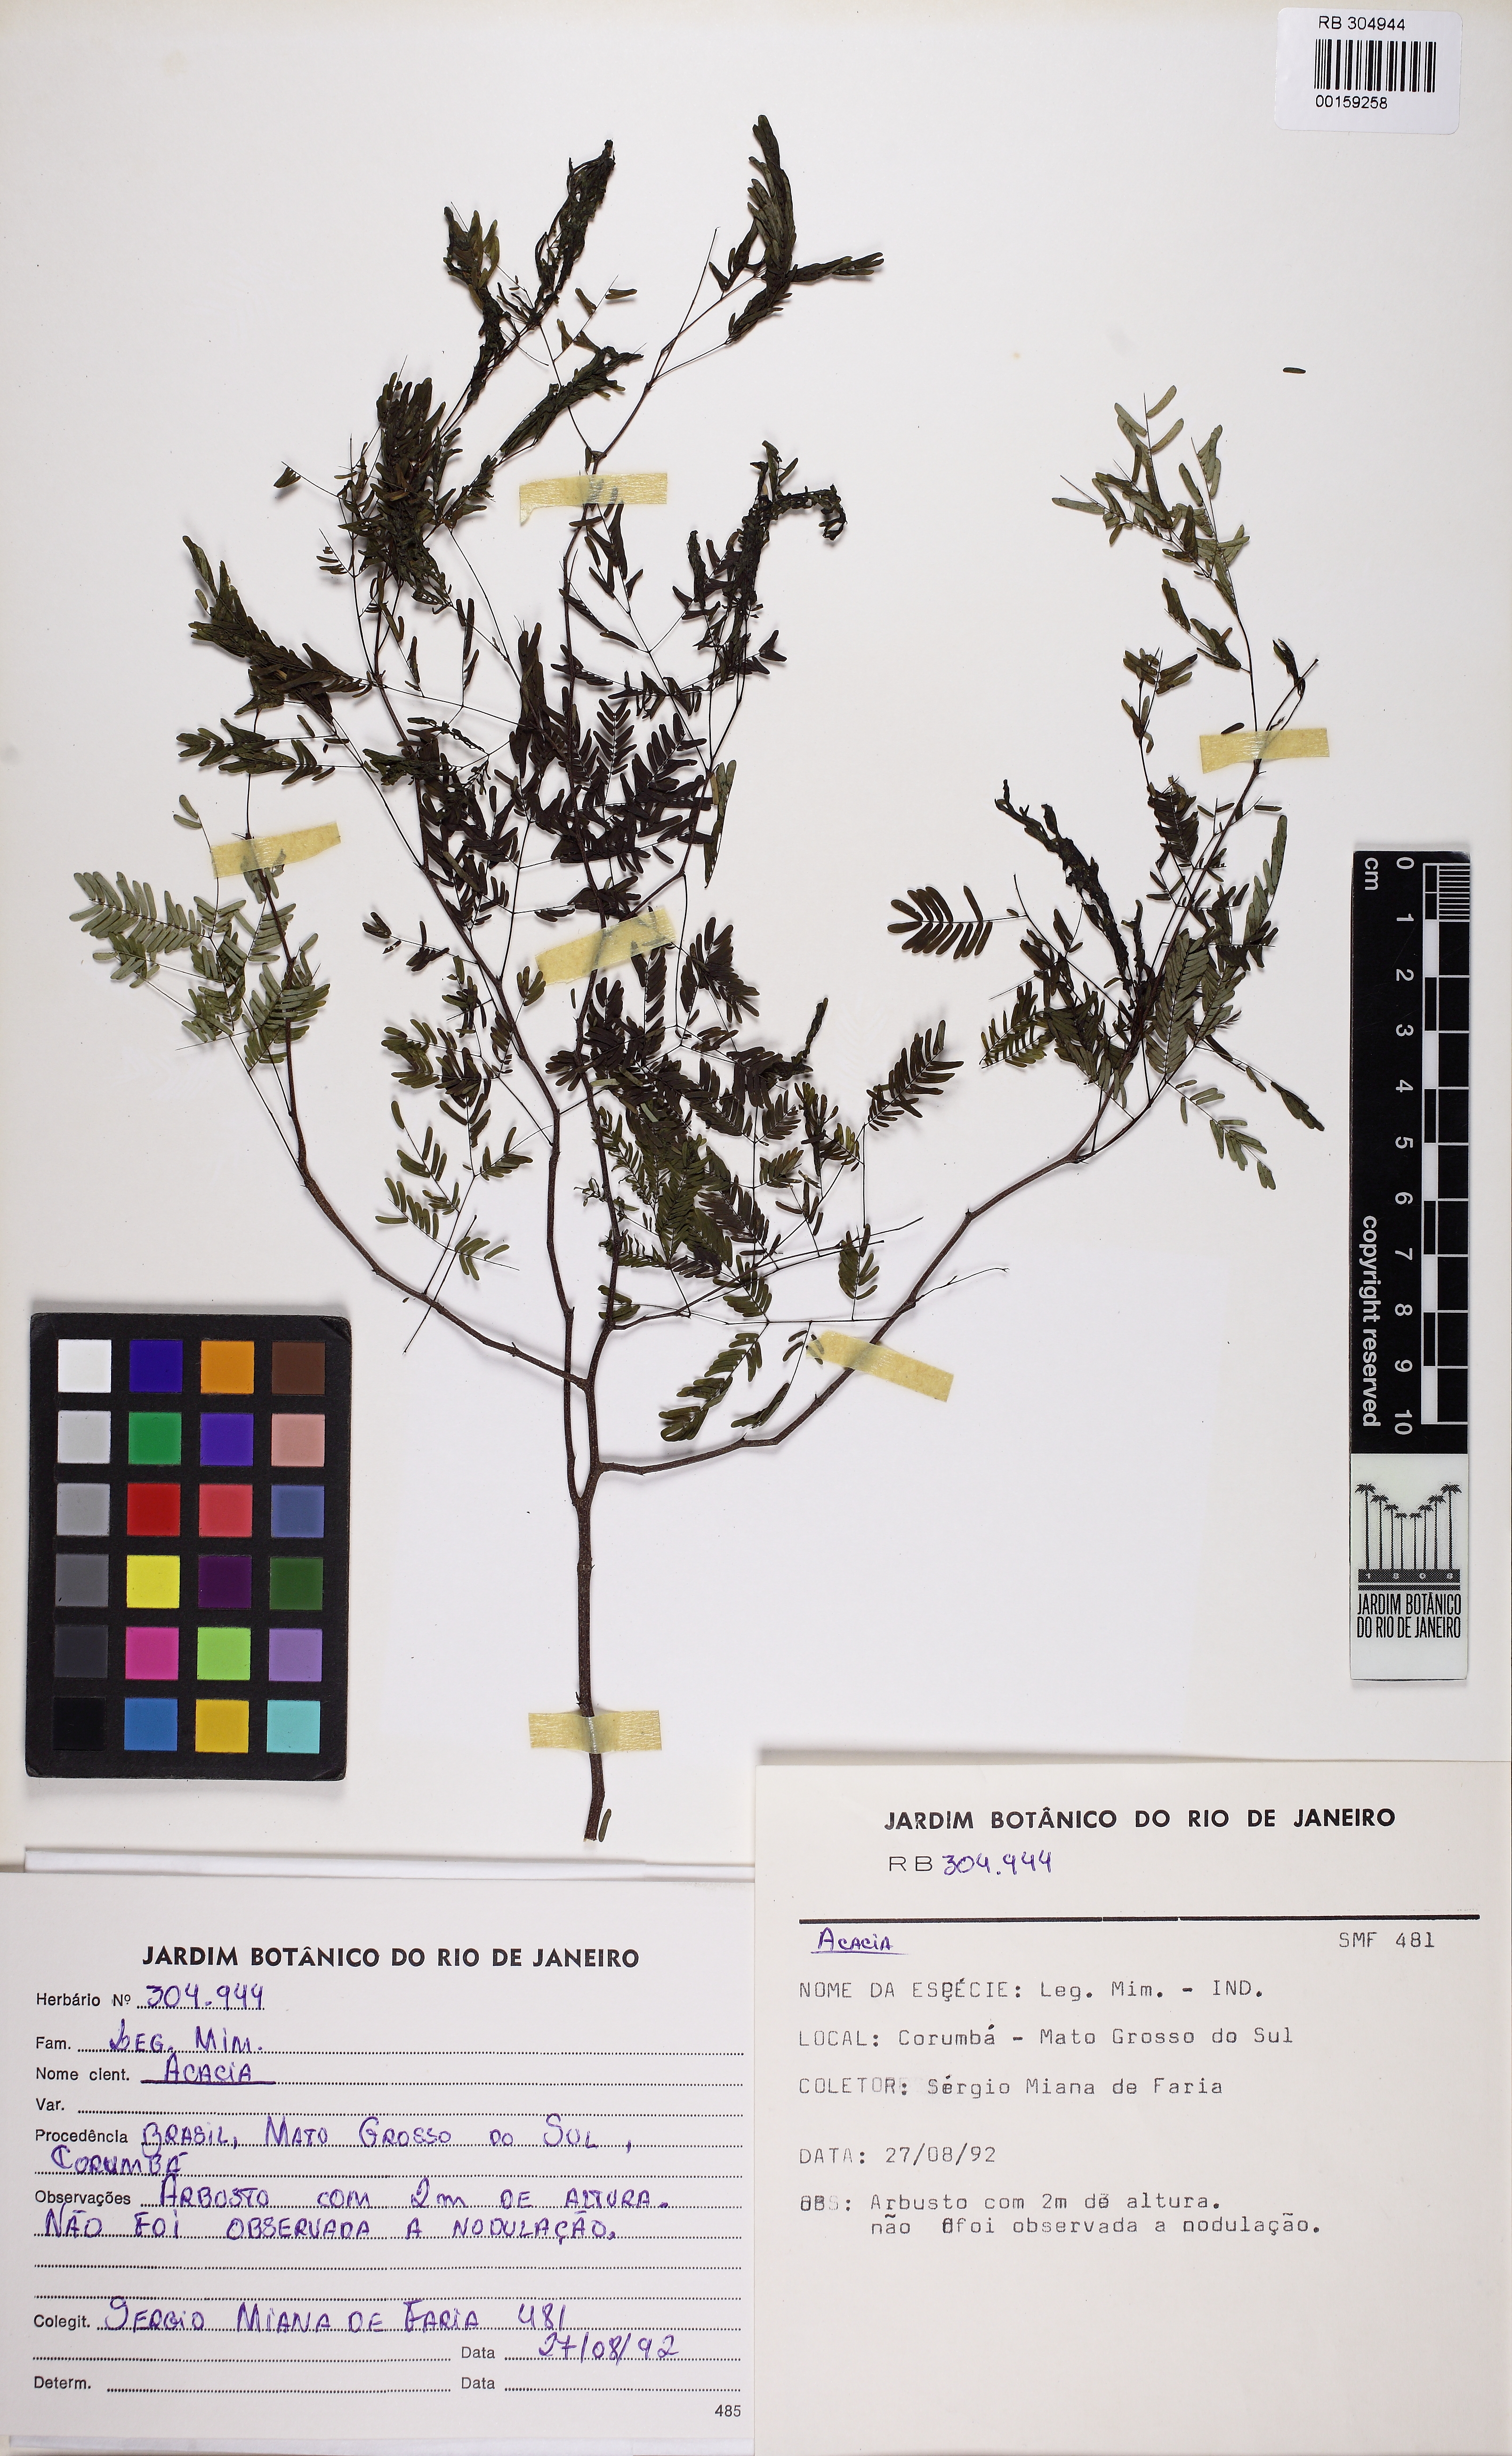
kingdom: Plantae
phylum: Tracheophyta
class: Magnoliopsida
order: Fabales
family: Fabaceae
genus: Acacia
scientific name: Acacia
